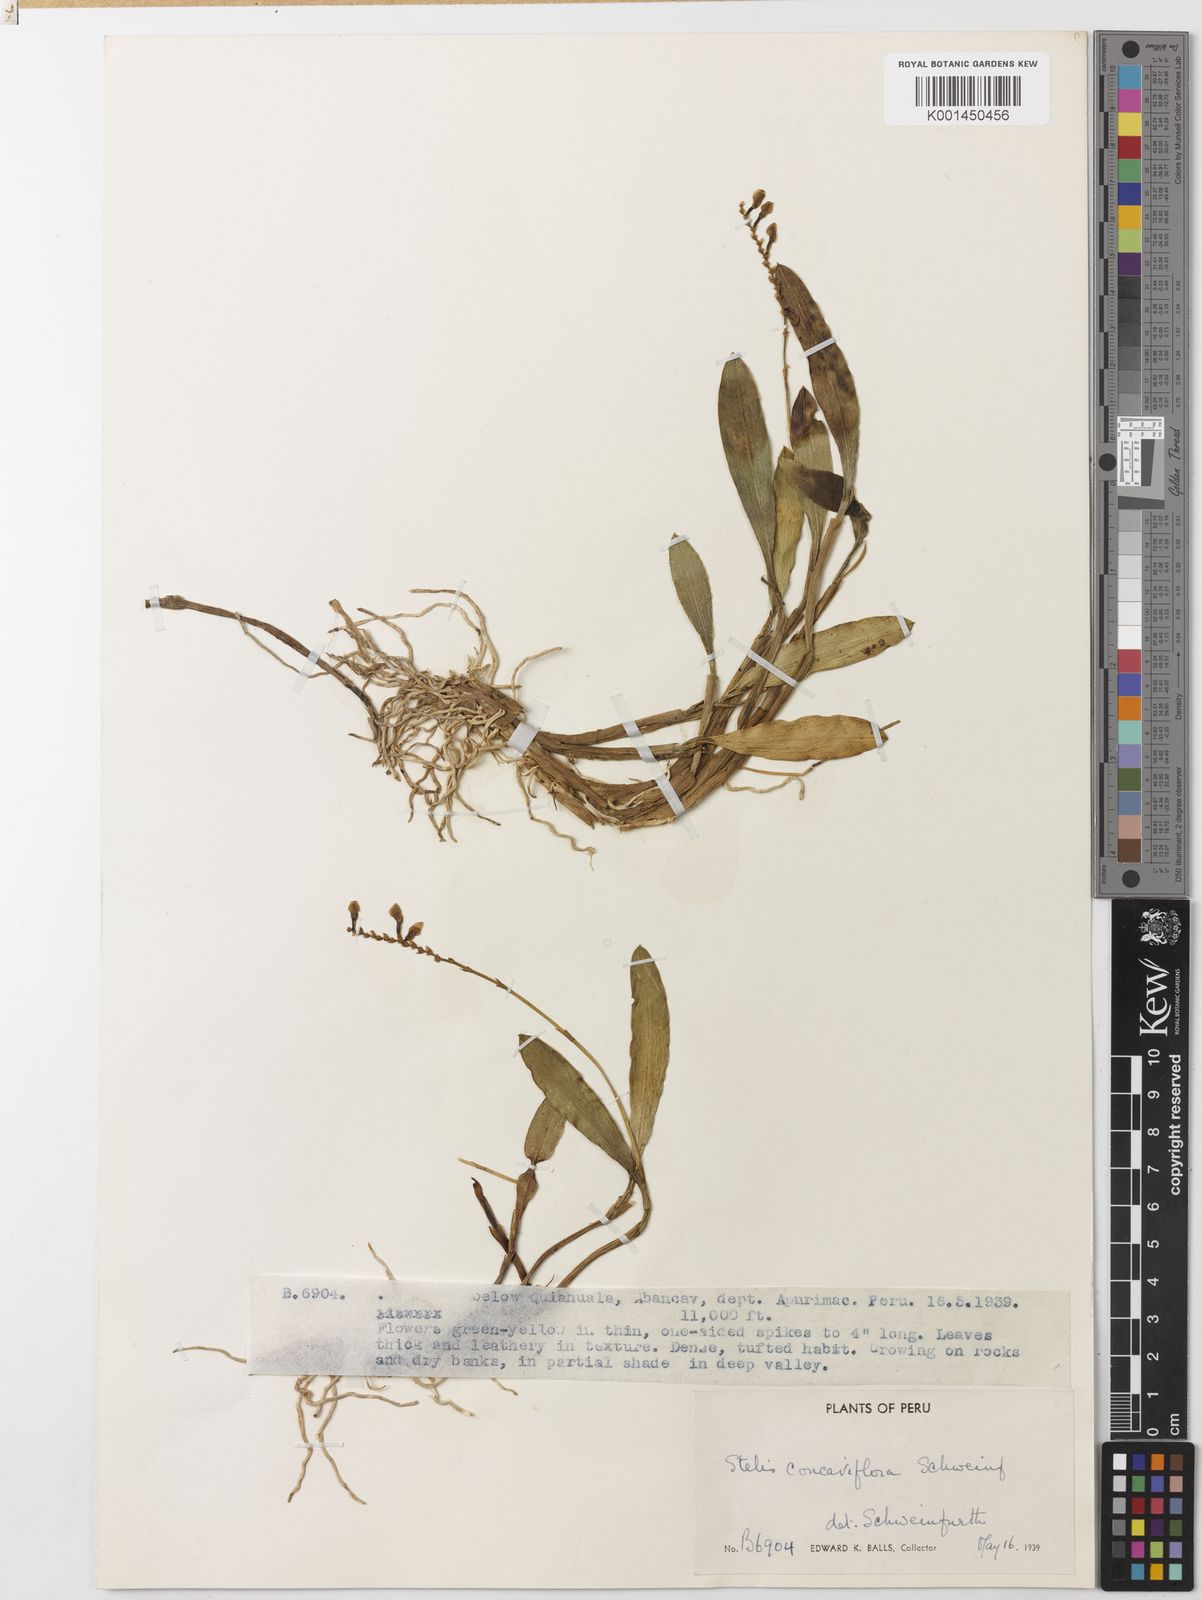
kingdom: Plantae
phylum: Tracheophyta
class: Liliopsida
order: Asparagales
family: Orchidaceae
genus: Stelis
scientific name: Stelis lamellata
